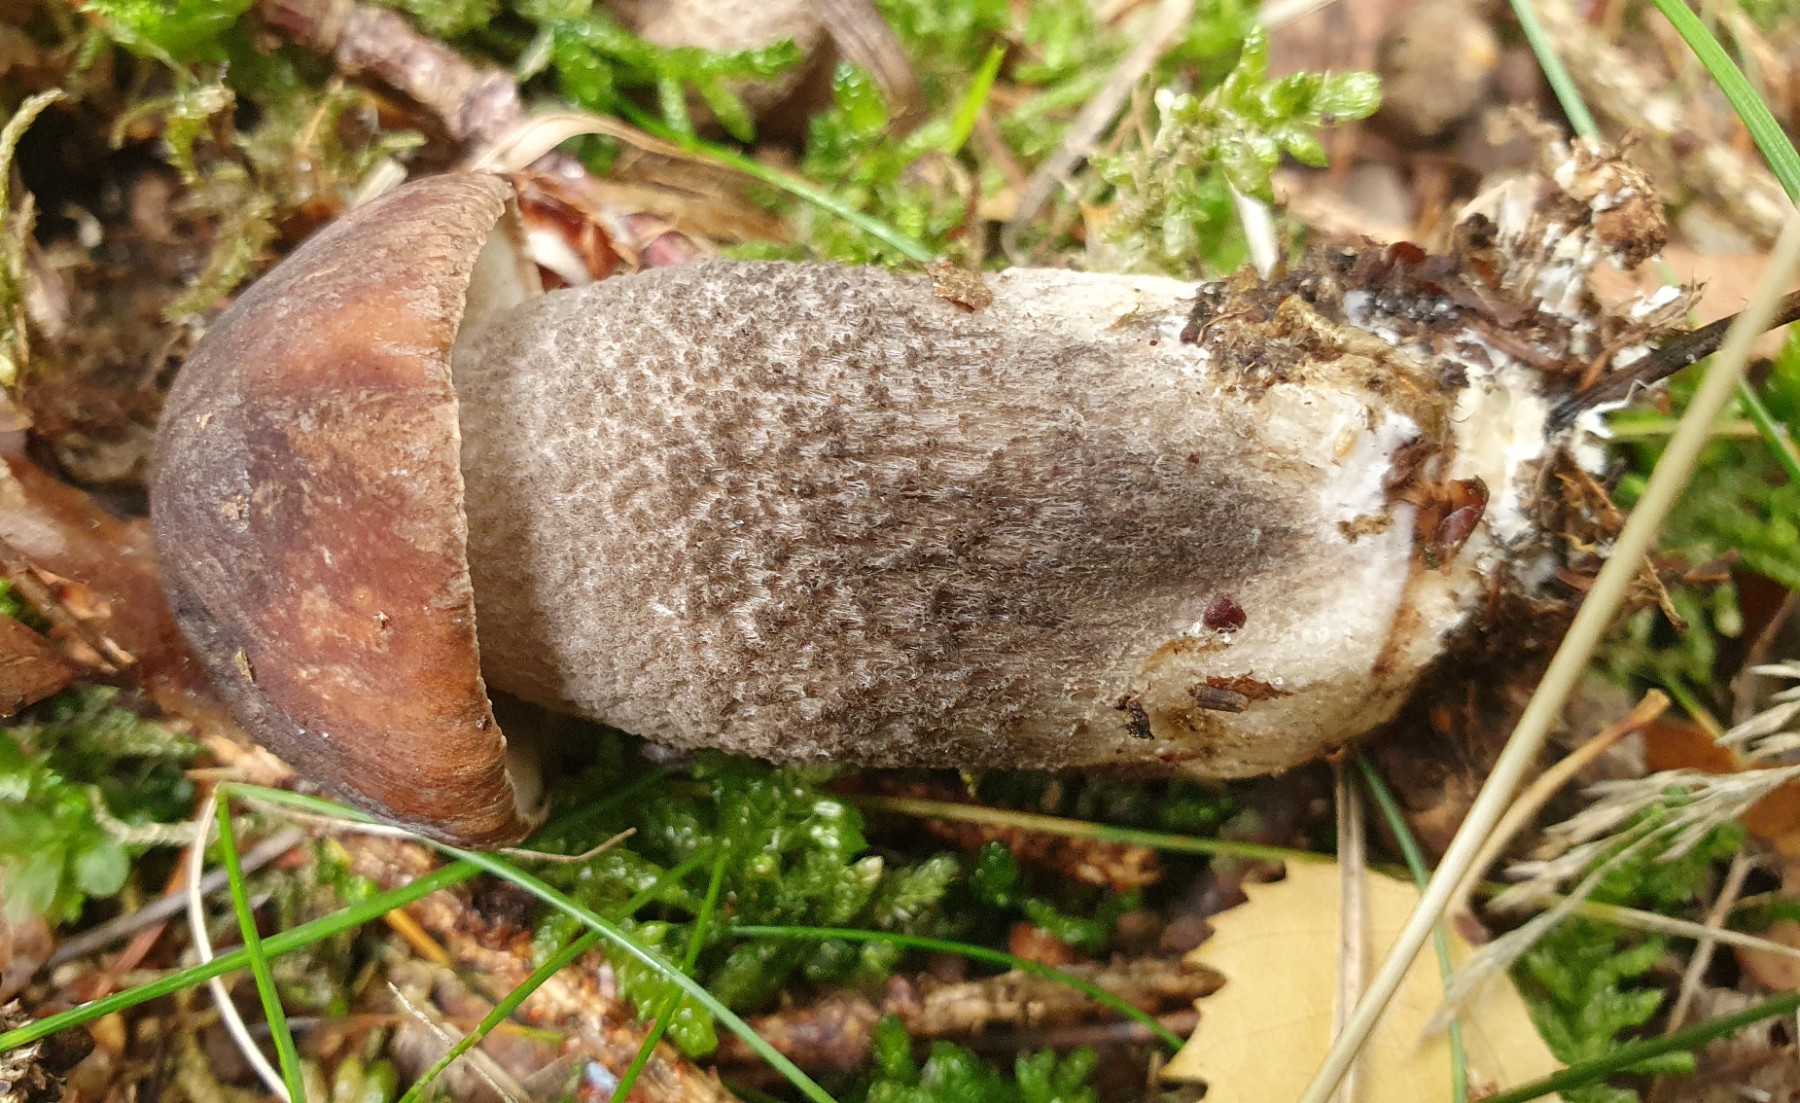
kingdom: Fungi
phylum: Basidiomycota
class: Agaricomycetes
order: Boletales
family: Boletaceae
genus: Leccinum
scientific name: Leccinum melaneum
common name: mørk skælrørhat
